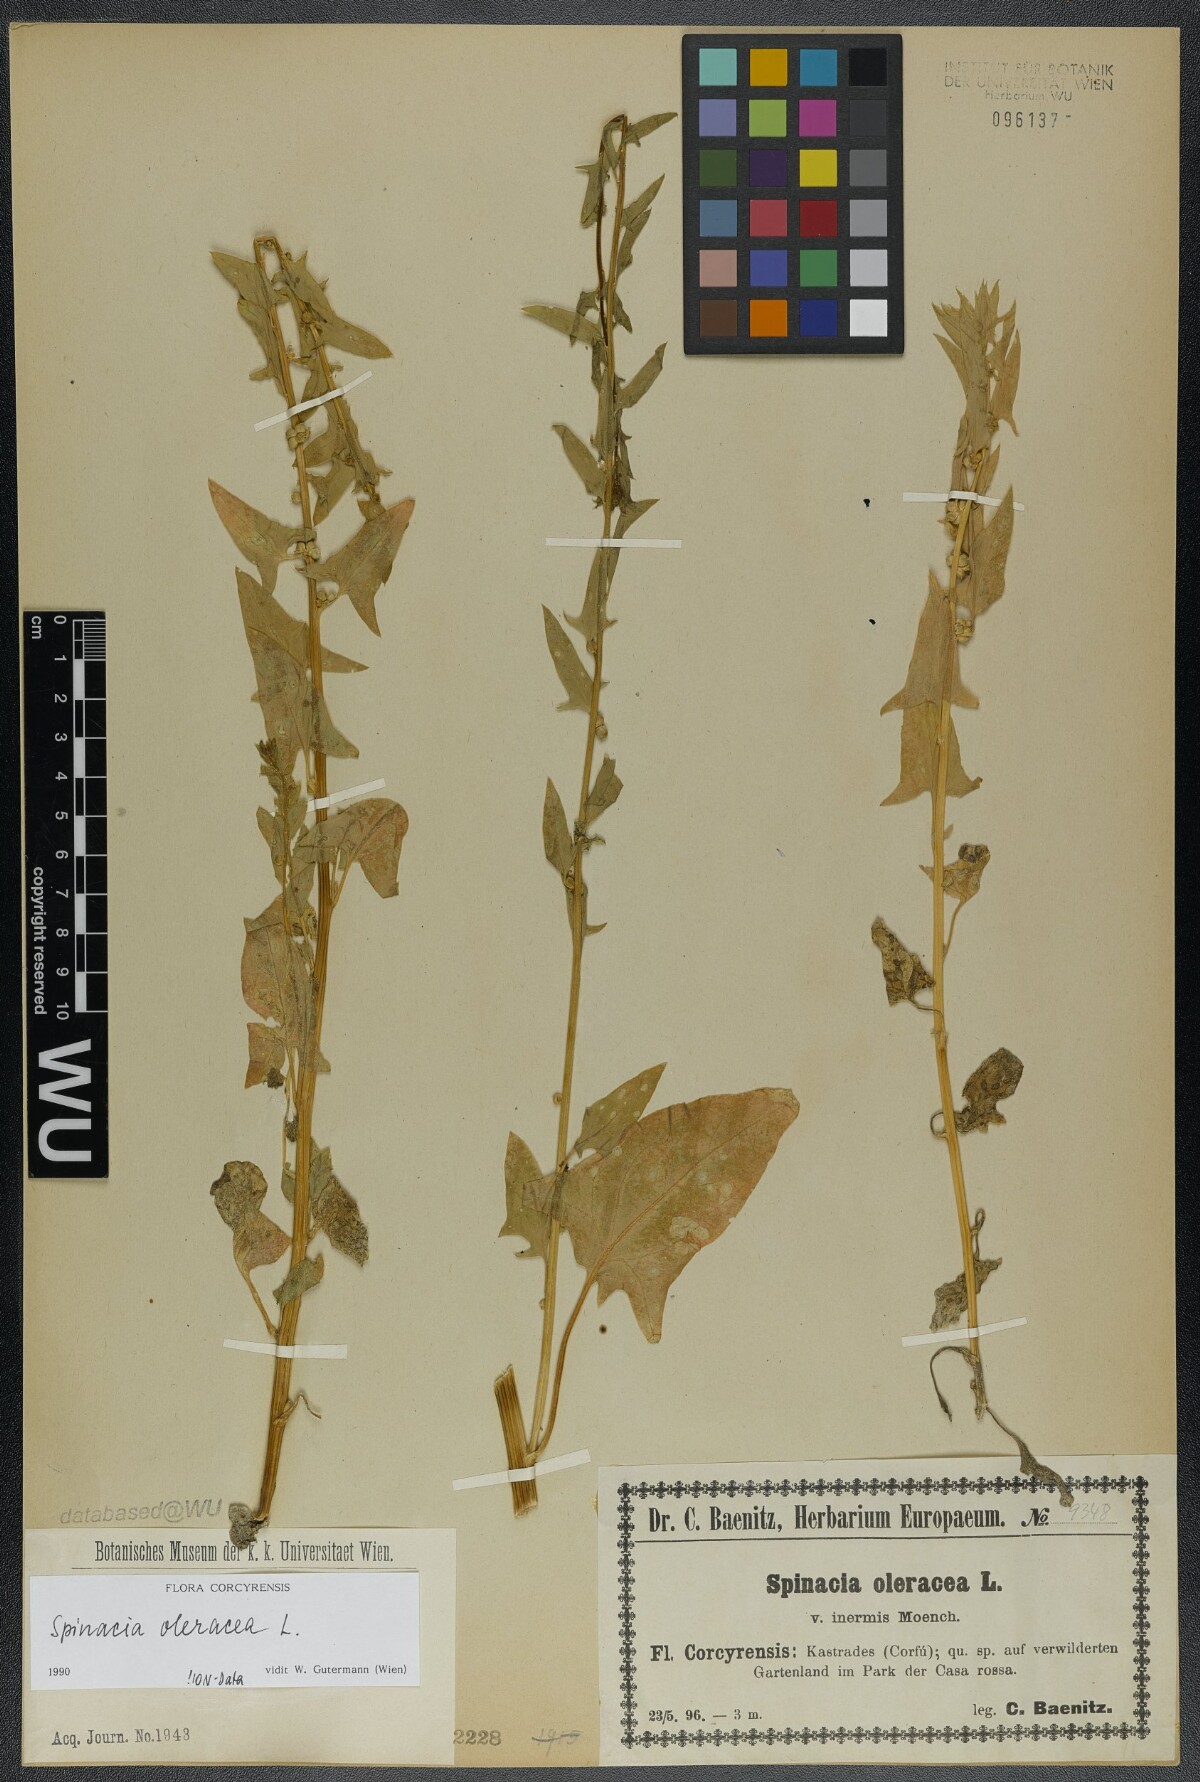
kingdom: Plantae
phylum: Tracheophyta
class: Magnoliopsida
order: Caryophyllales
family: Amaranthaceae
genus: Spinacia
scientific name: Spinacia oleracea
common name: Spinach
